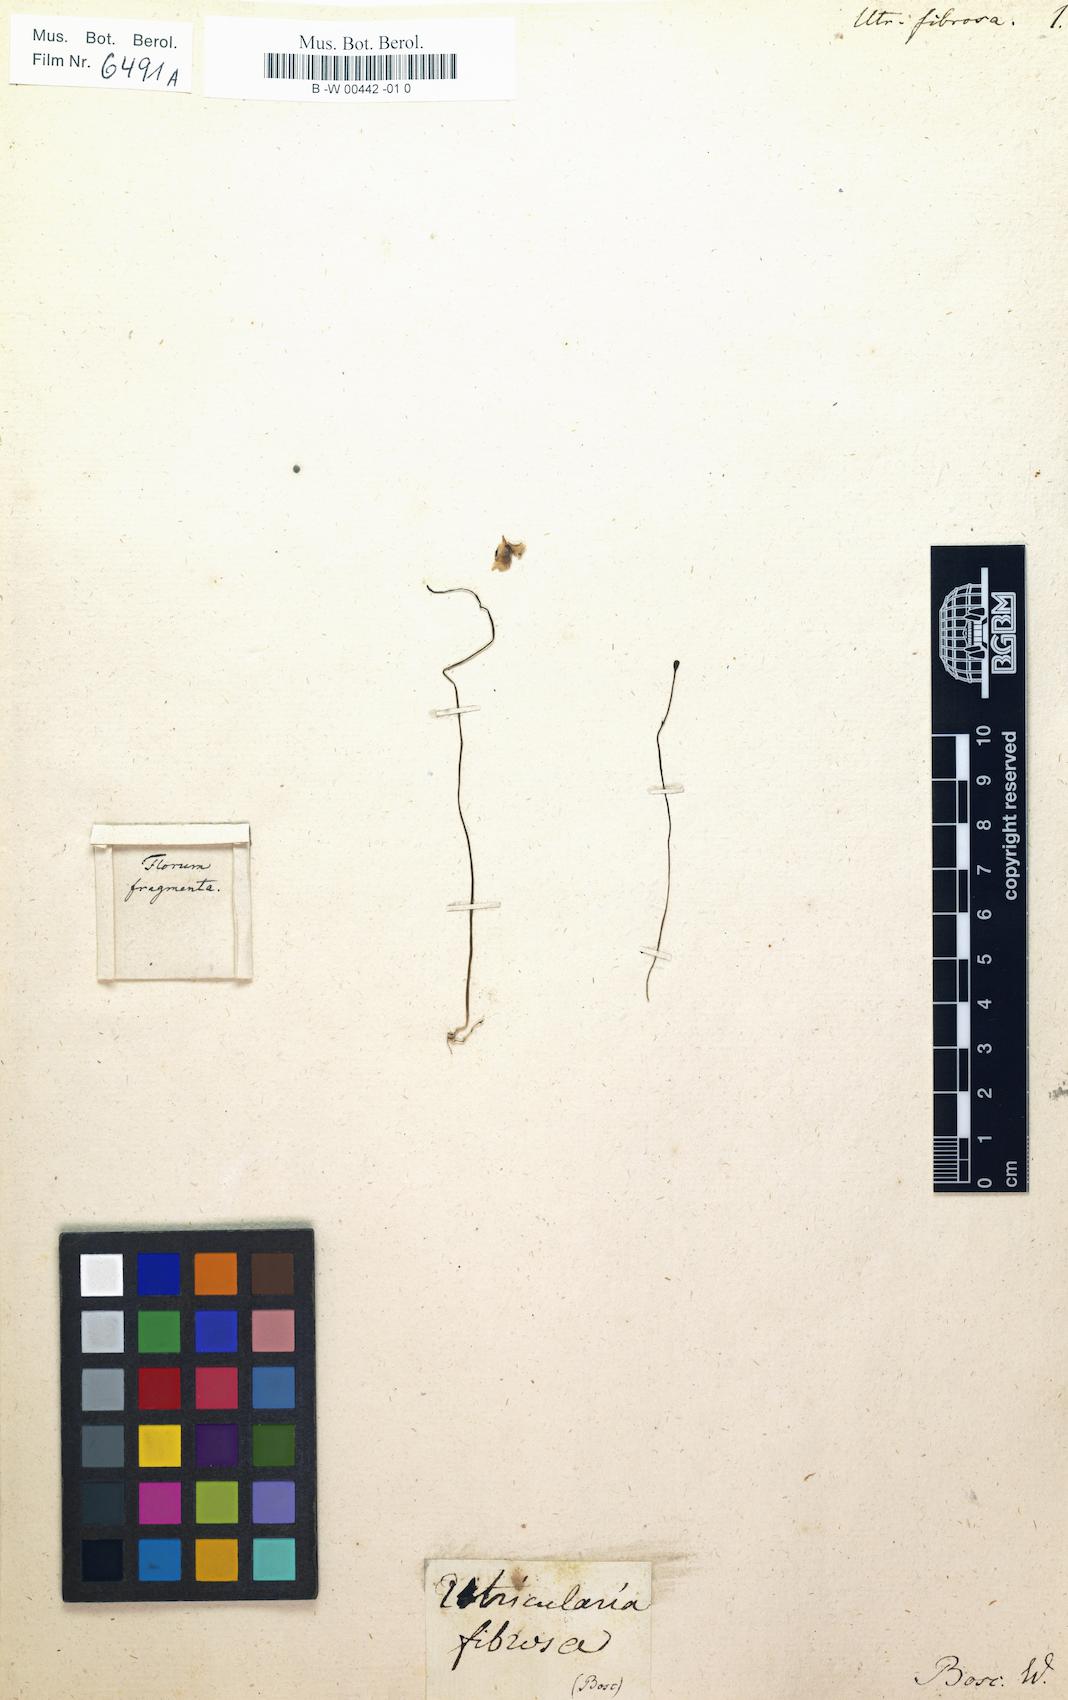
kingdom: Plantae
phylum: Tracheophyta
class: Magnoliopsida
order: Lamiales
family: Lentibulariaceae
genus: Utricularia
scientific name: Utricularia fibrosa
